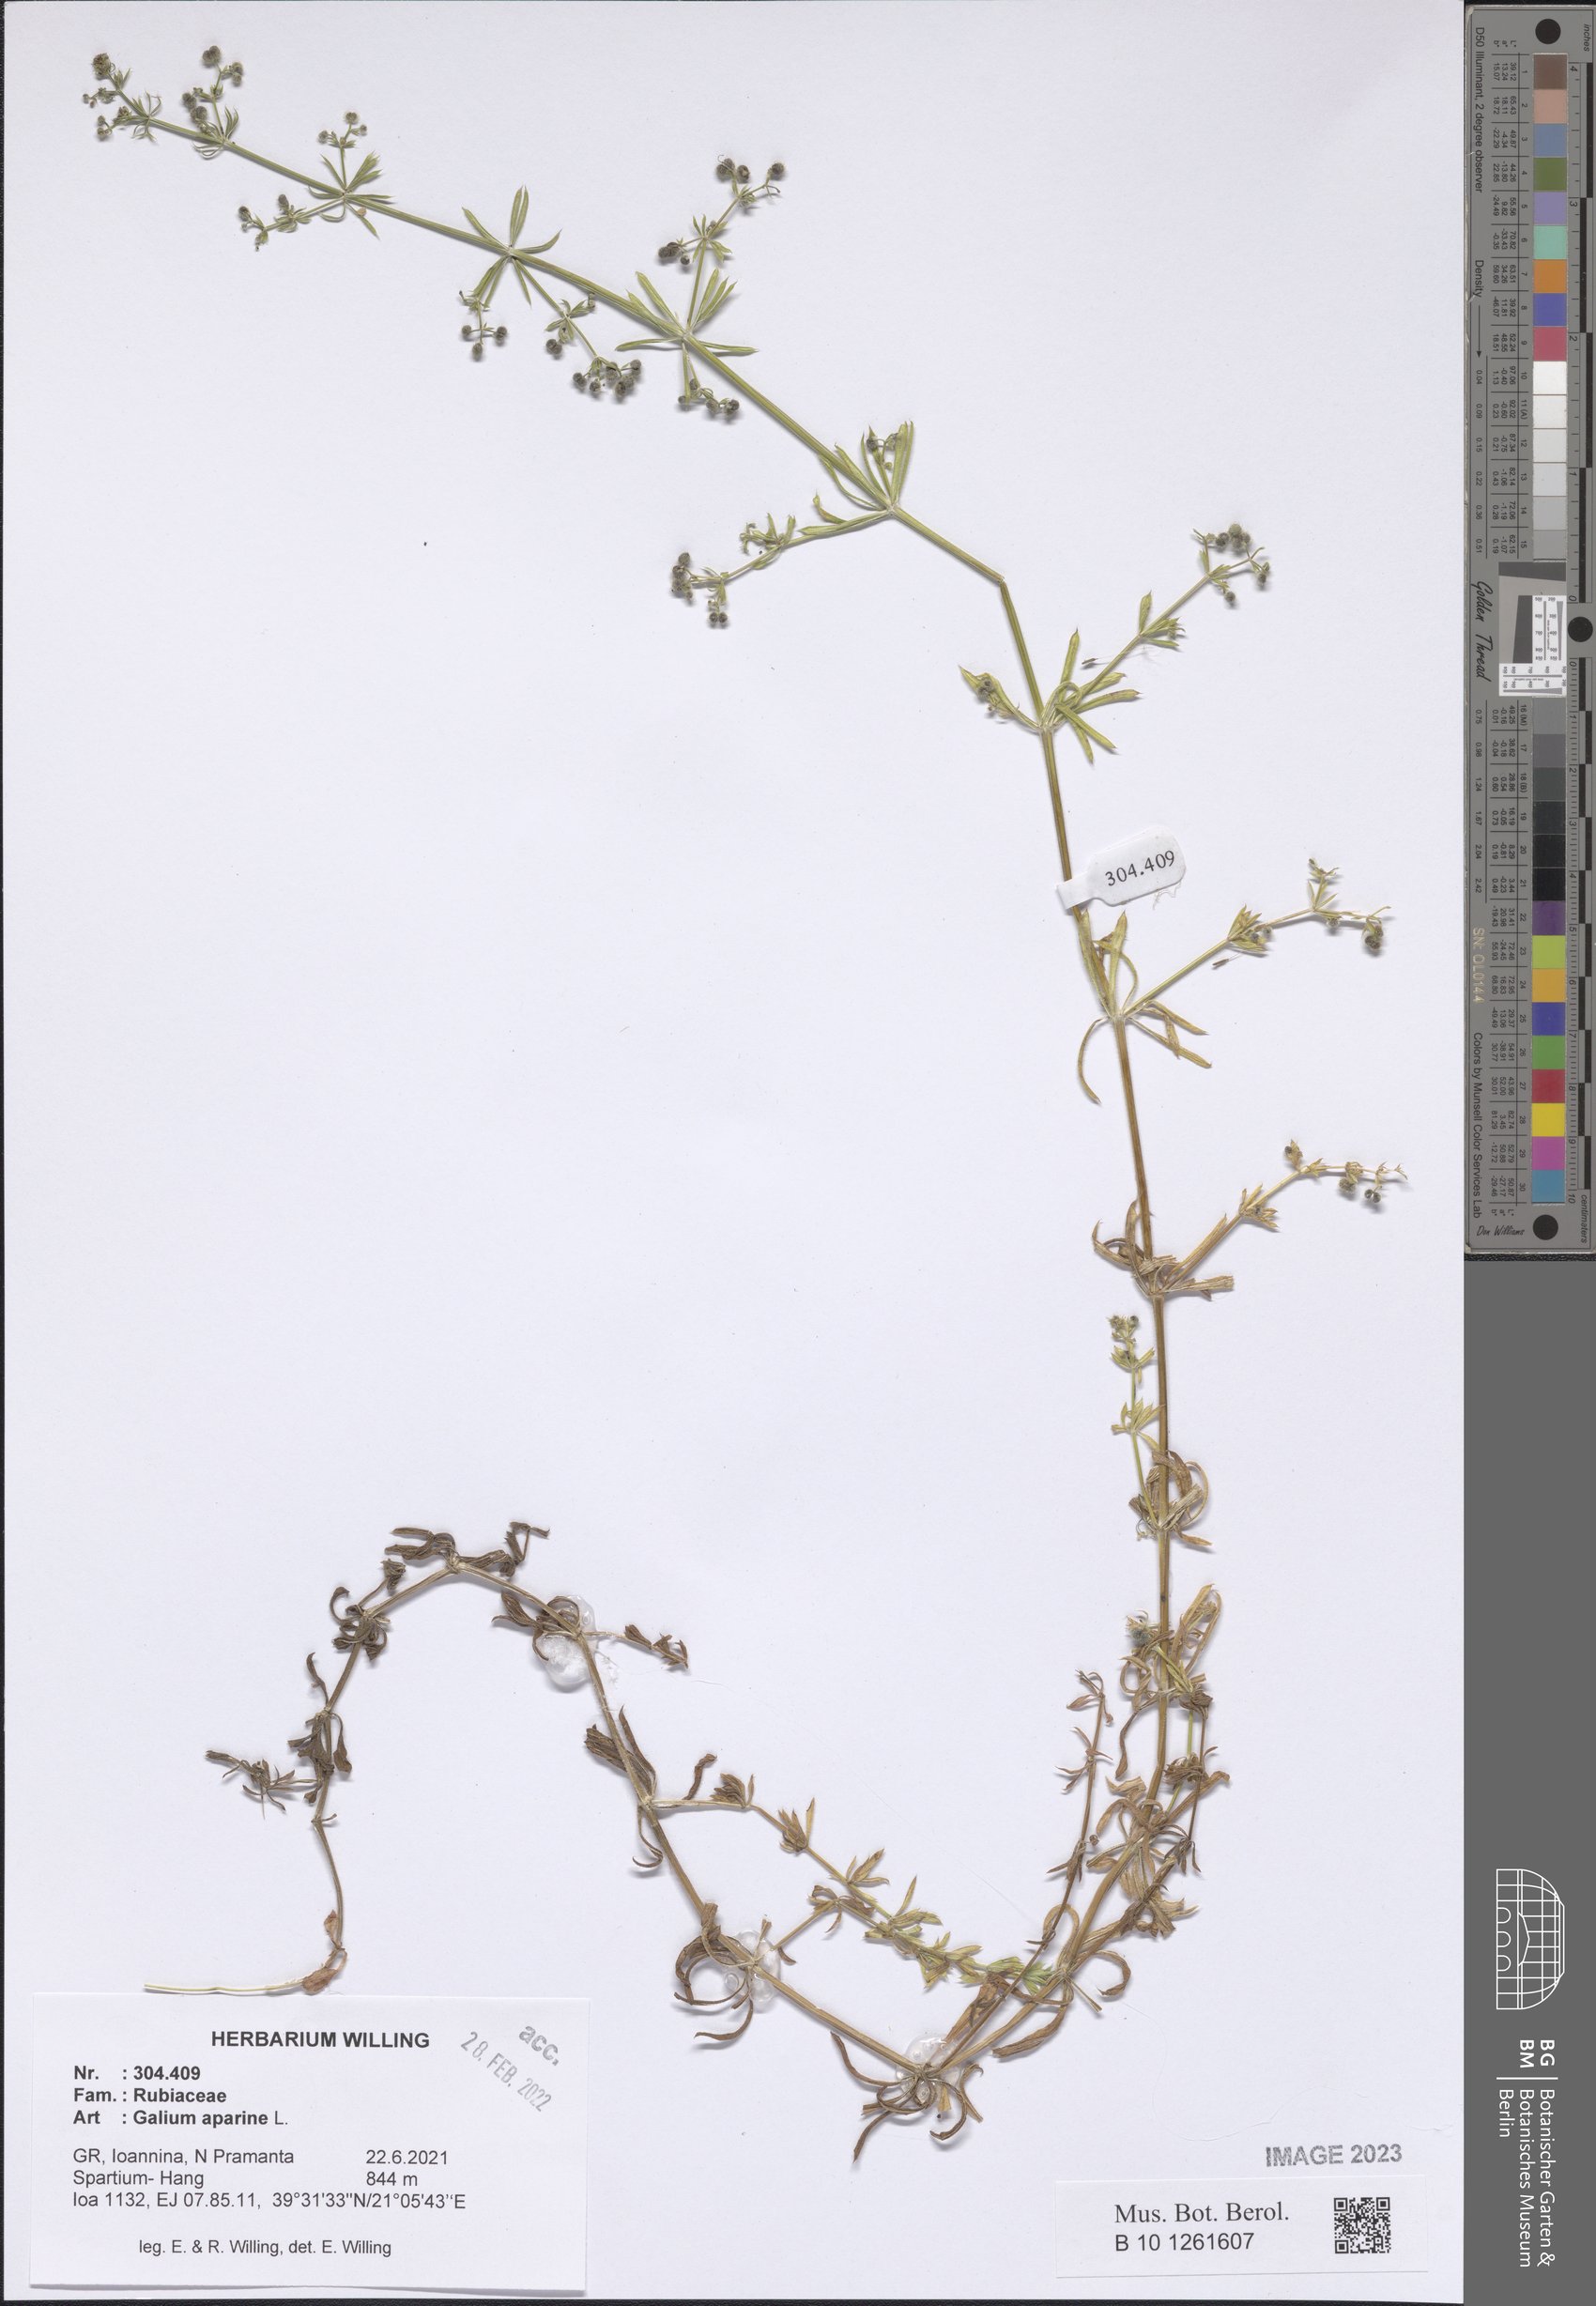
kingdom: Plantae
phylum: Tracheophyta
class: Magnoliopsida
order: Gentianales
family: Rubiaceae
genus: Galium
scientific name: Galium aparine
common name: Cleavers
